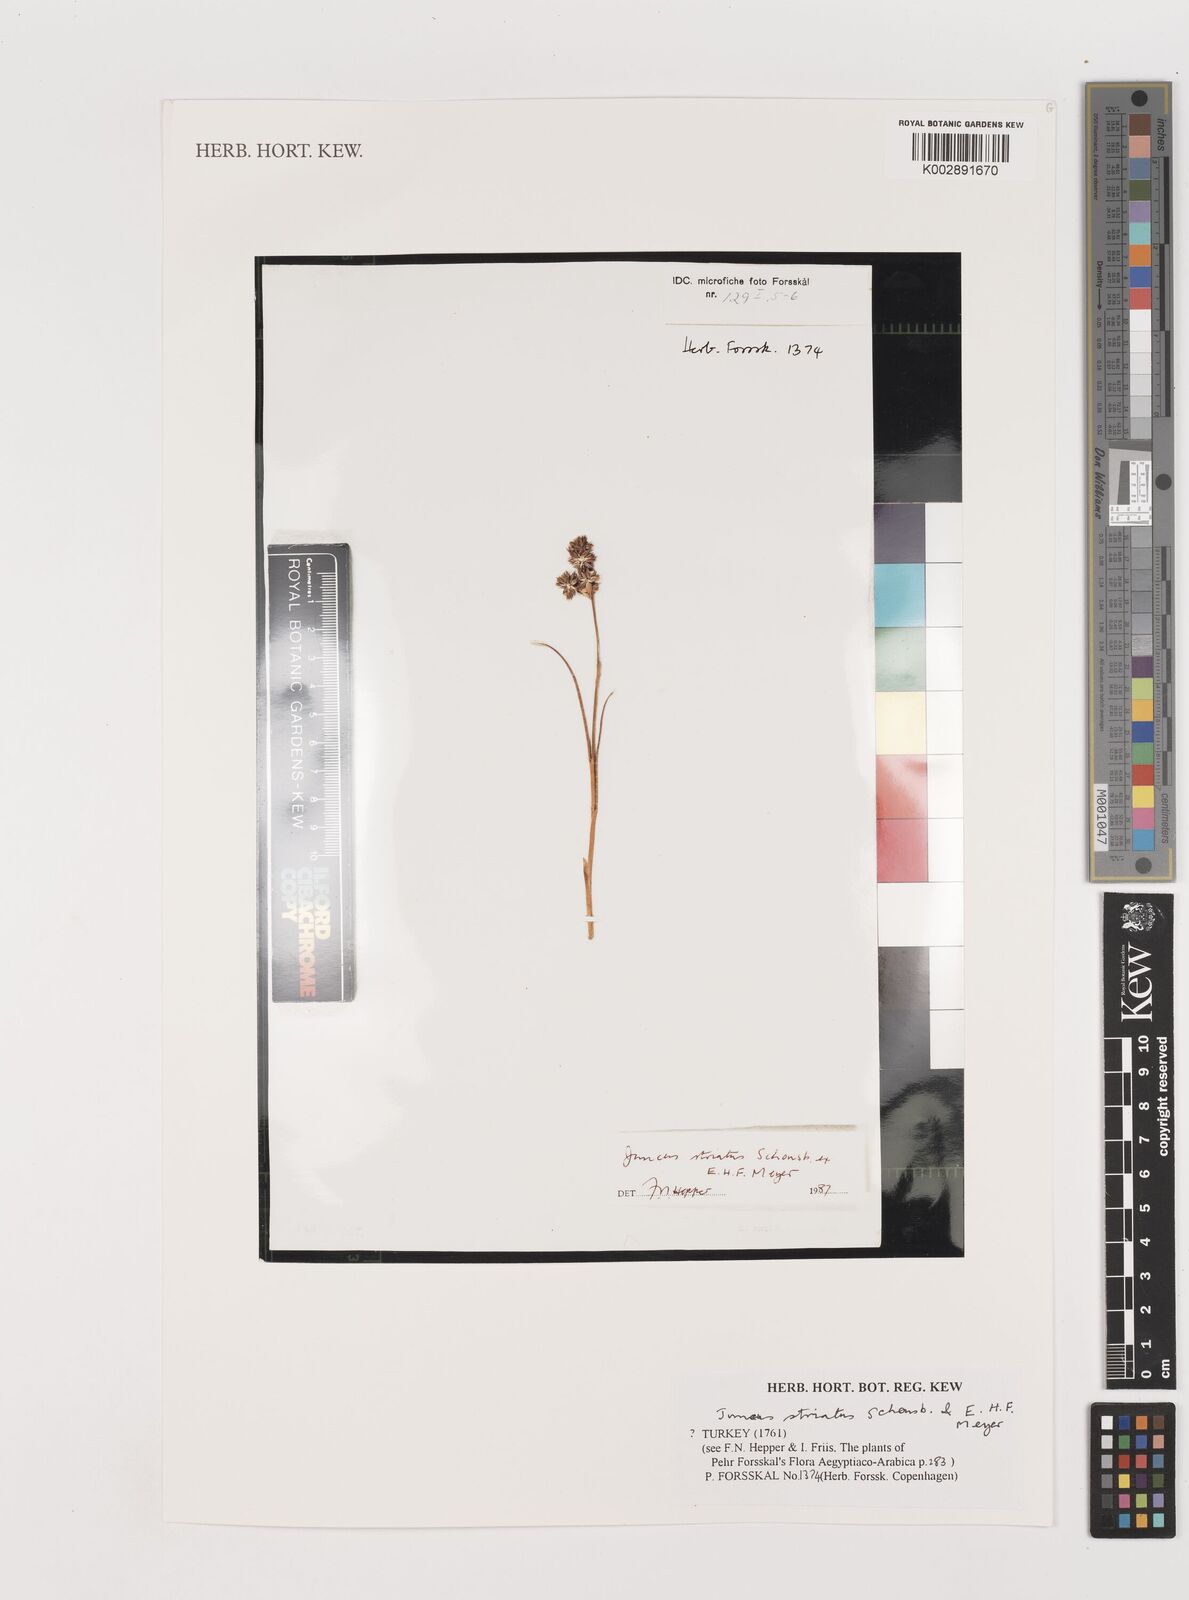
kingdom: Plantae
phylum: Tracheophyta
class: Liliopsida
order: Poales
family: Juncaceae
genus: Juncus
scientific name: Juncus
